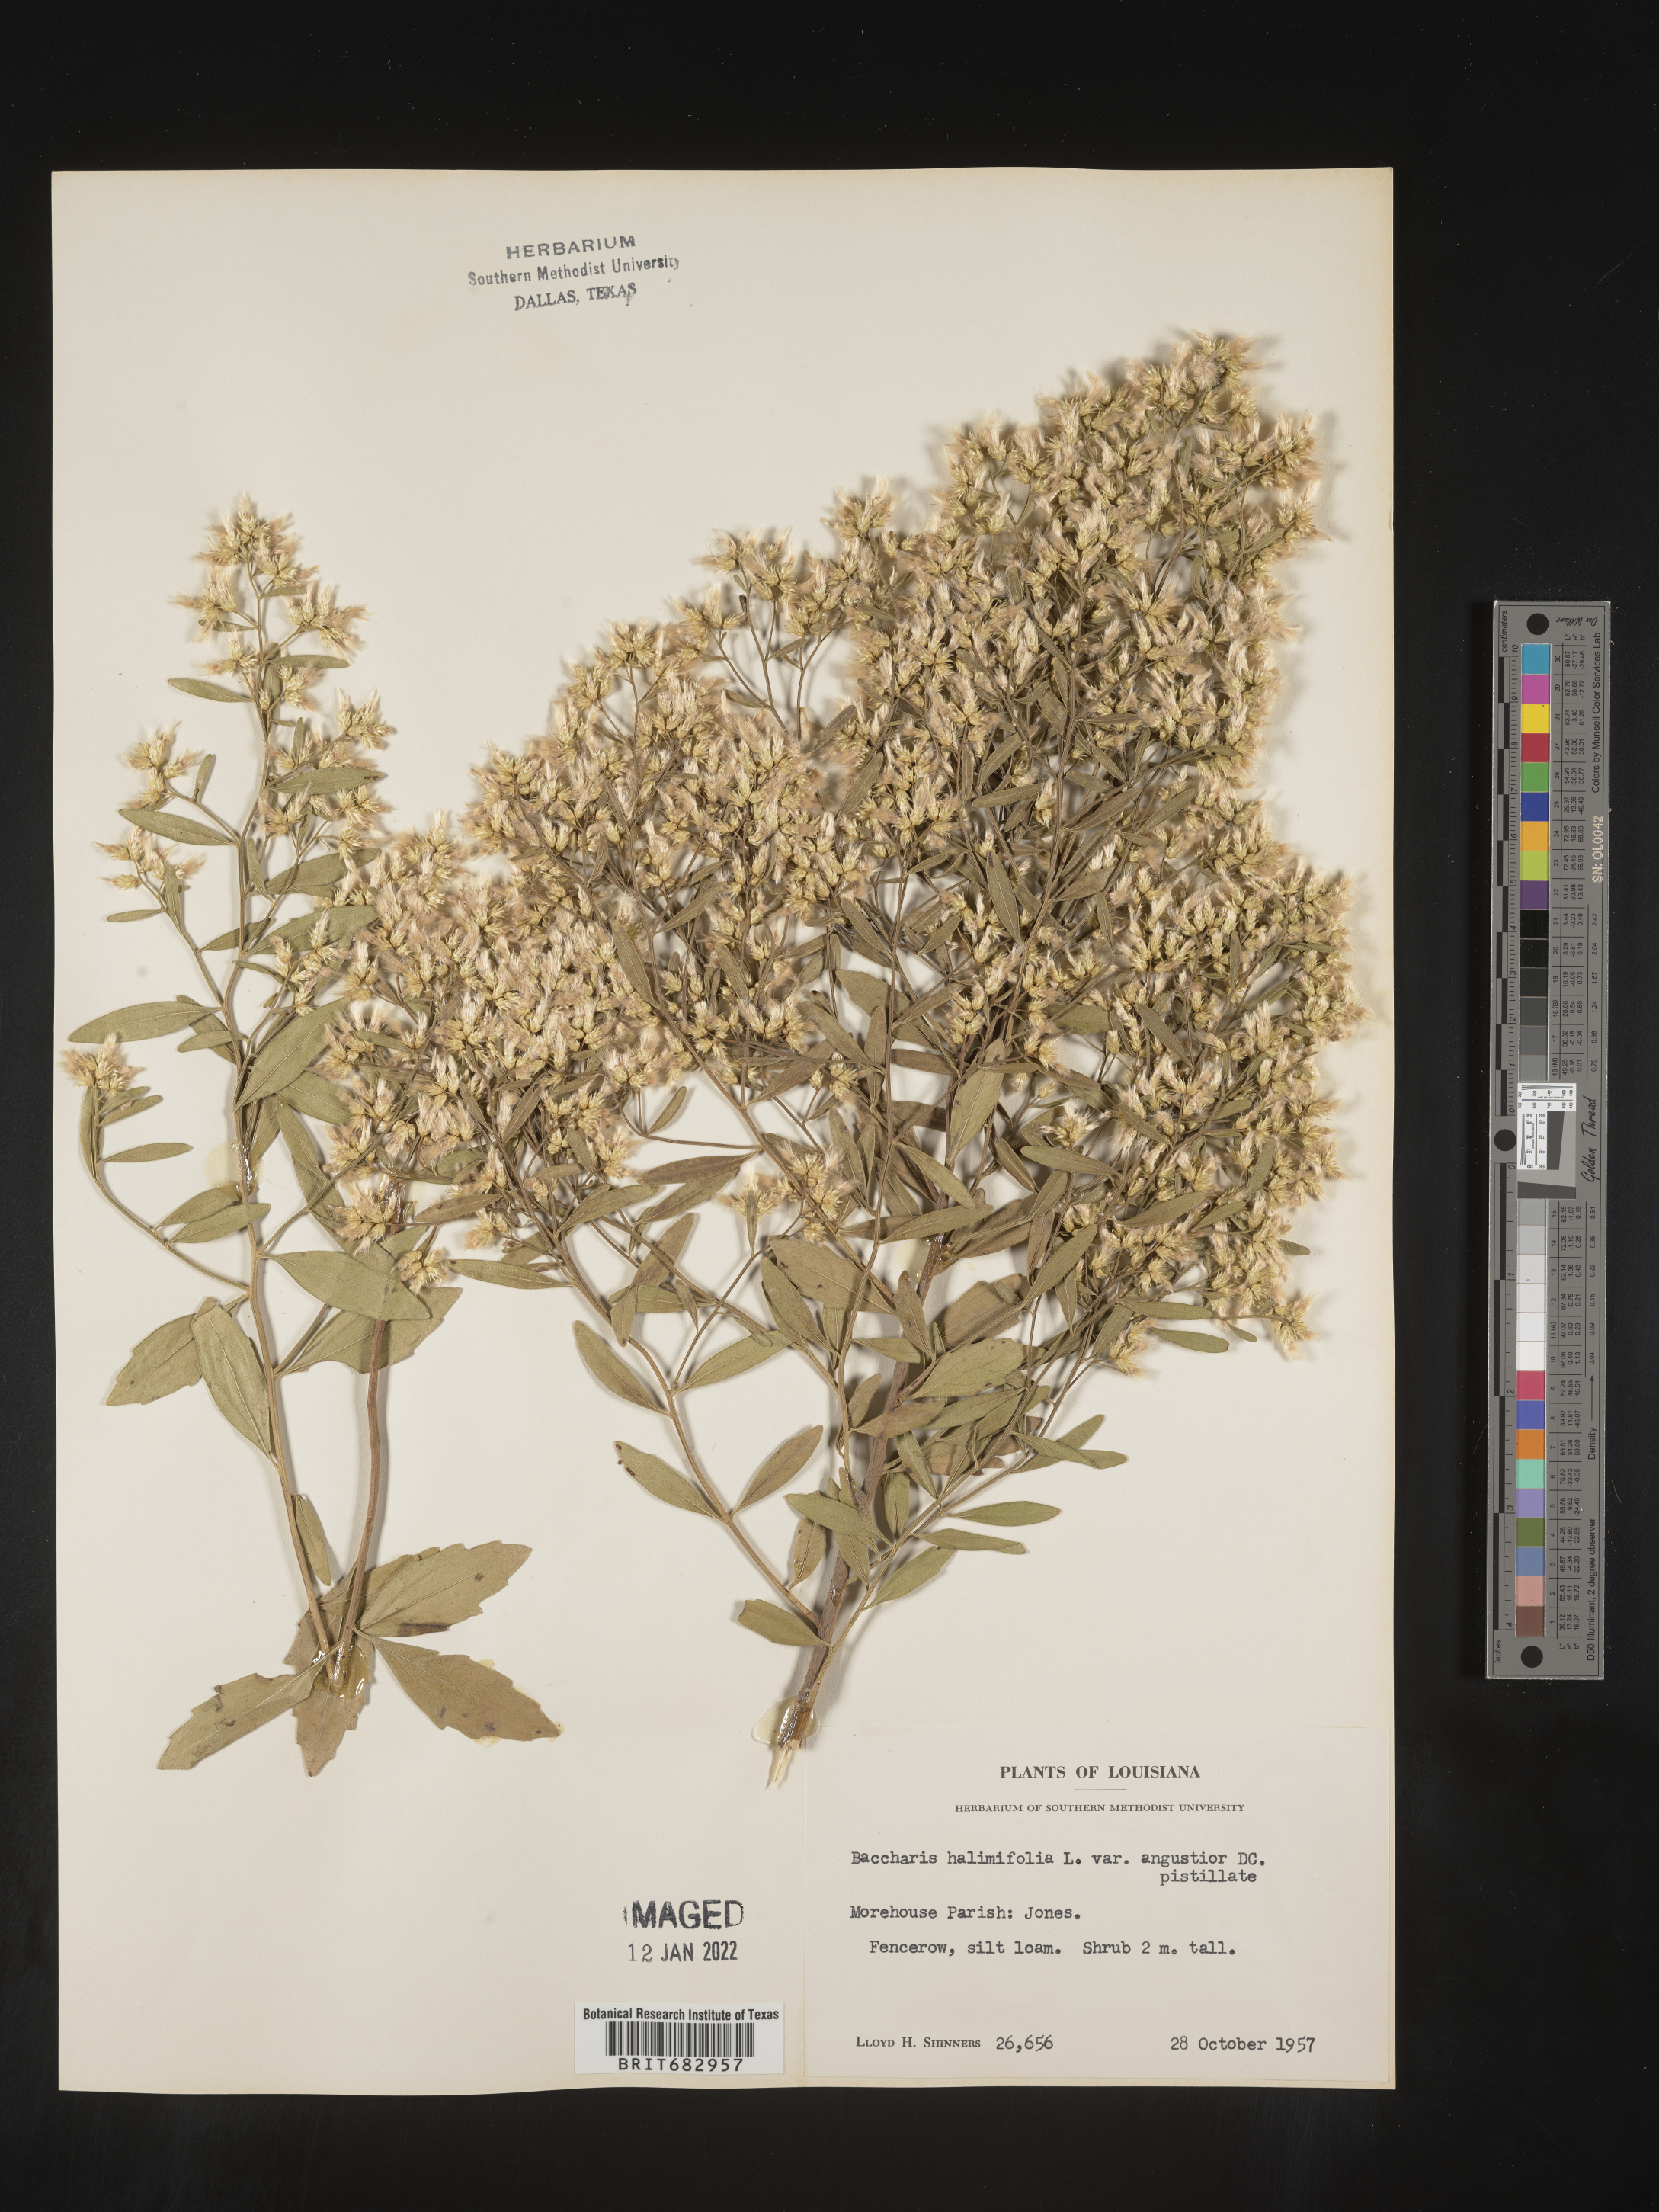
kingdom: Plantae
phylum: Tracheophyta
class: Magnoliopsida
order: Asterales
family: Asteraceae
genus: Nidorella
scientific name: Nidorella ivifolia
